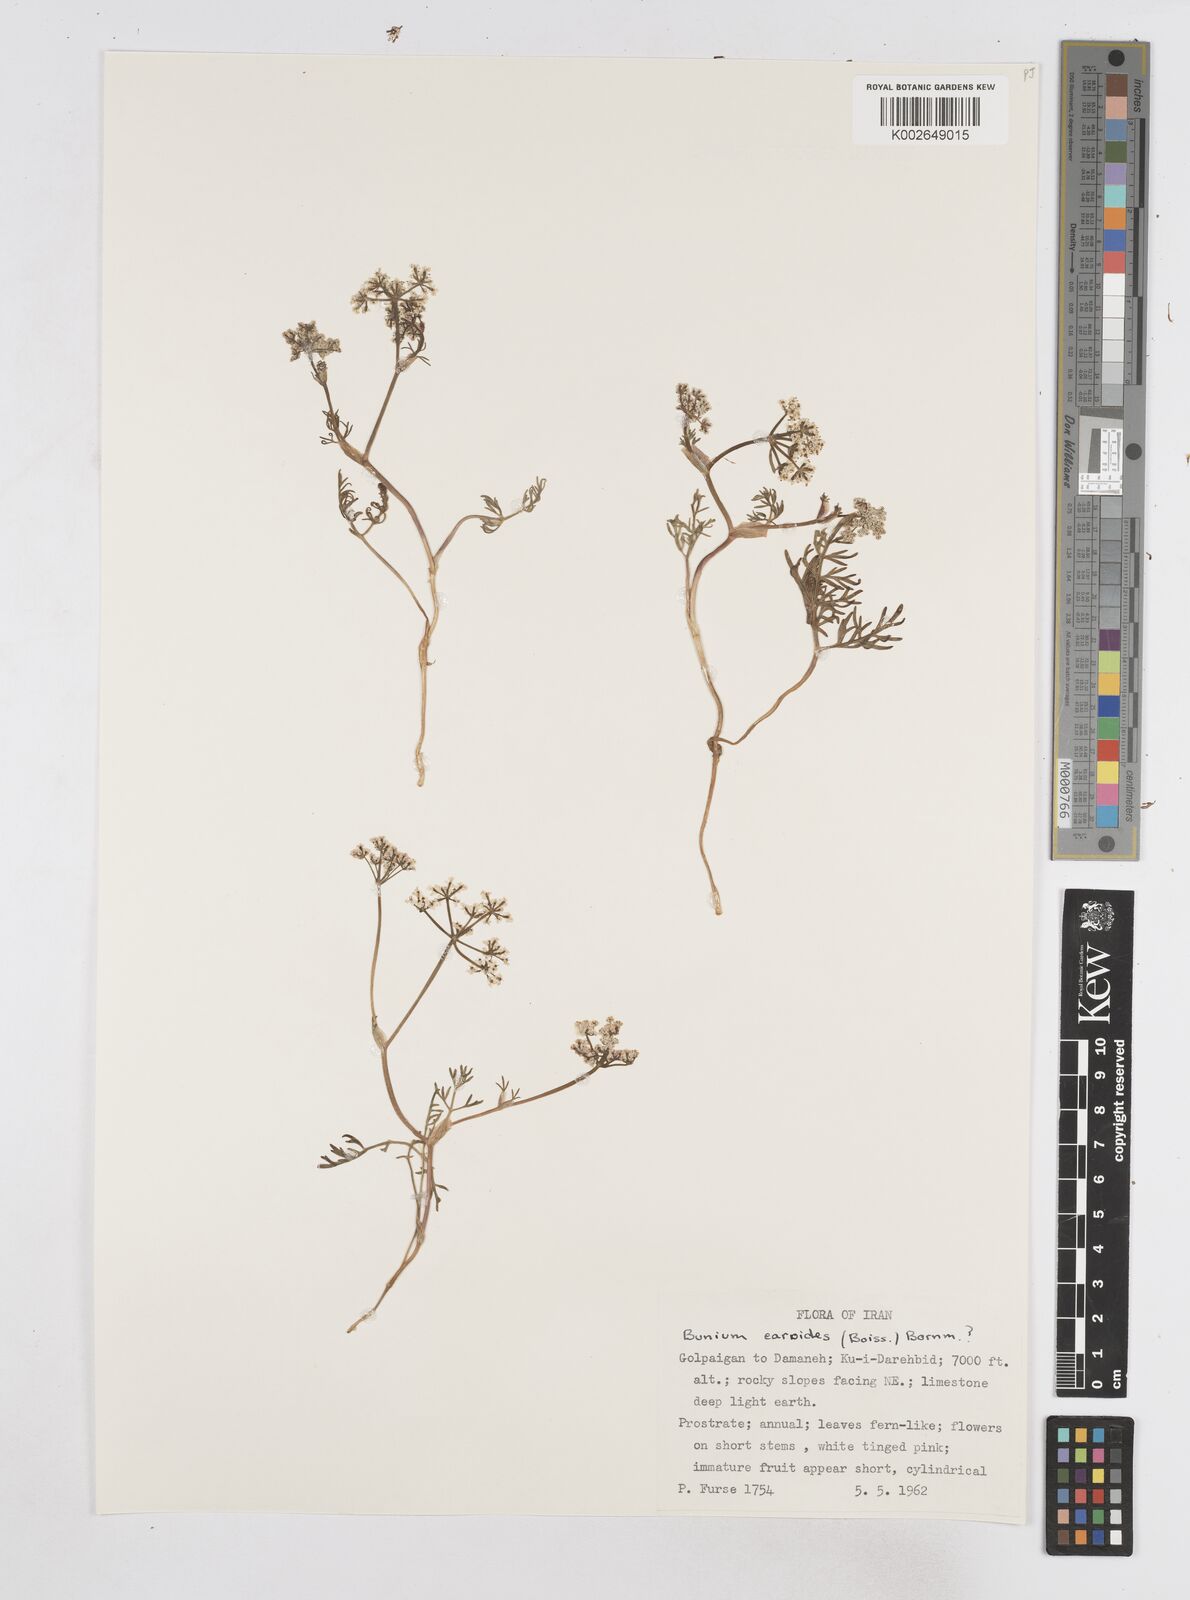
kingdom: Plantae
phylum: Tracheophyta
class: Magnoliopsida
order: Apiales
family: Apiaceae
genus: Elwendia
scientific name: Elwendia caroides
